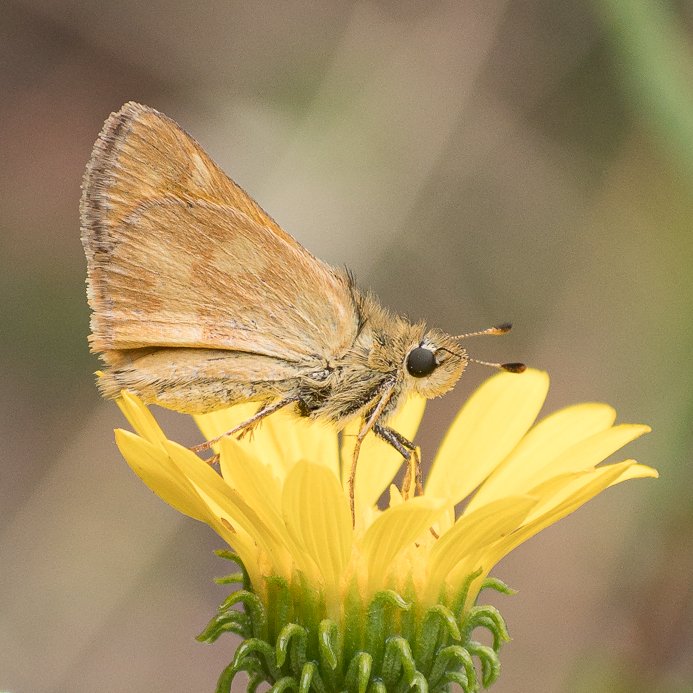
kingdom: Animalia
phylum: Arthropoda
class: Insecta
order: Lepidoptera
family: Hesperiidae
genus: Ochlodes
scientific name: Ochlodes sylvanoides
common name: Woodland Skipper
